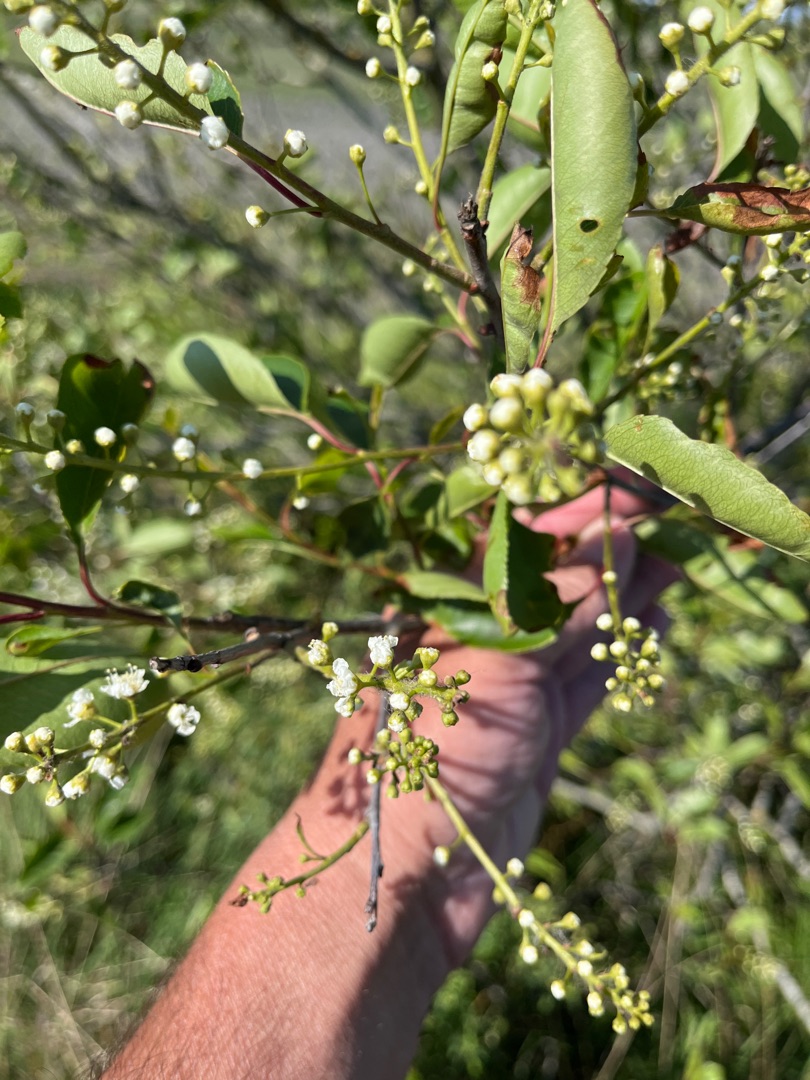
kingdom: Plantae
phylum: Tracheophyta
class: Magnoliopsida
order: Rosales
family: Rosaceae
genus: Prunus
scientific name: Prunus serotina
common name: Glansbladet hæg
